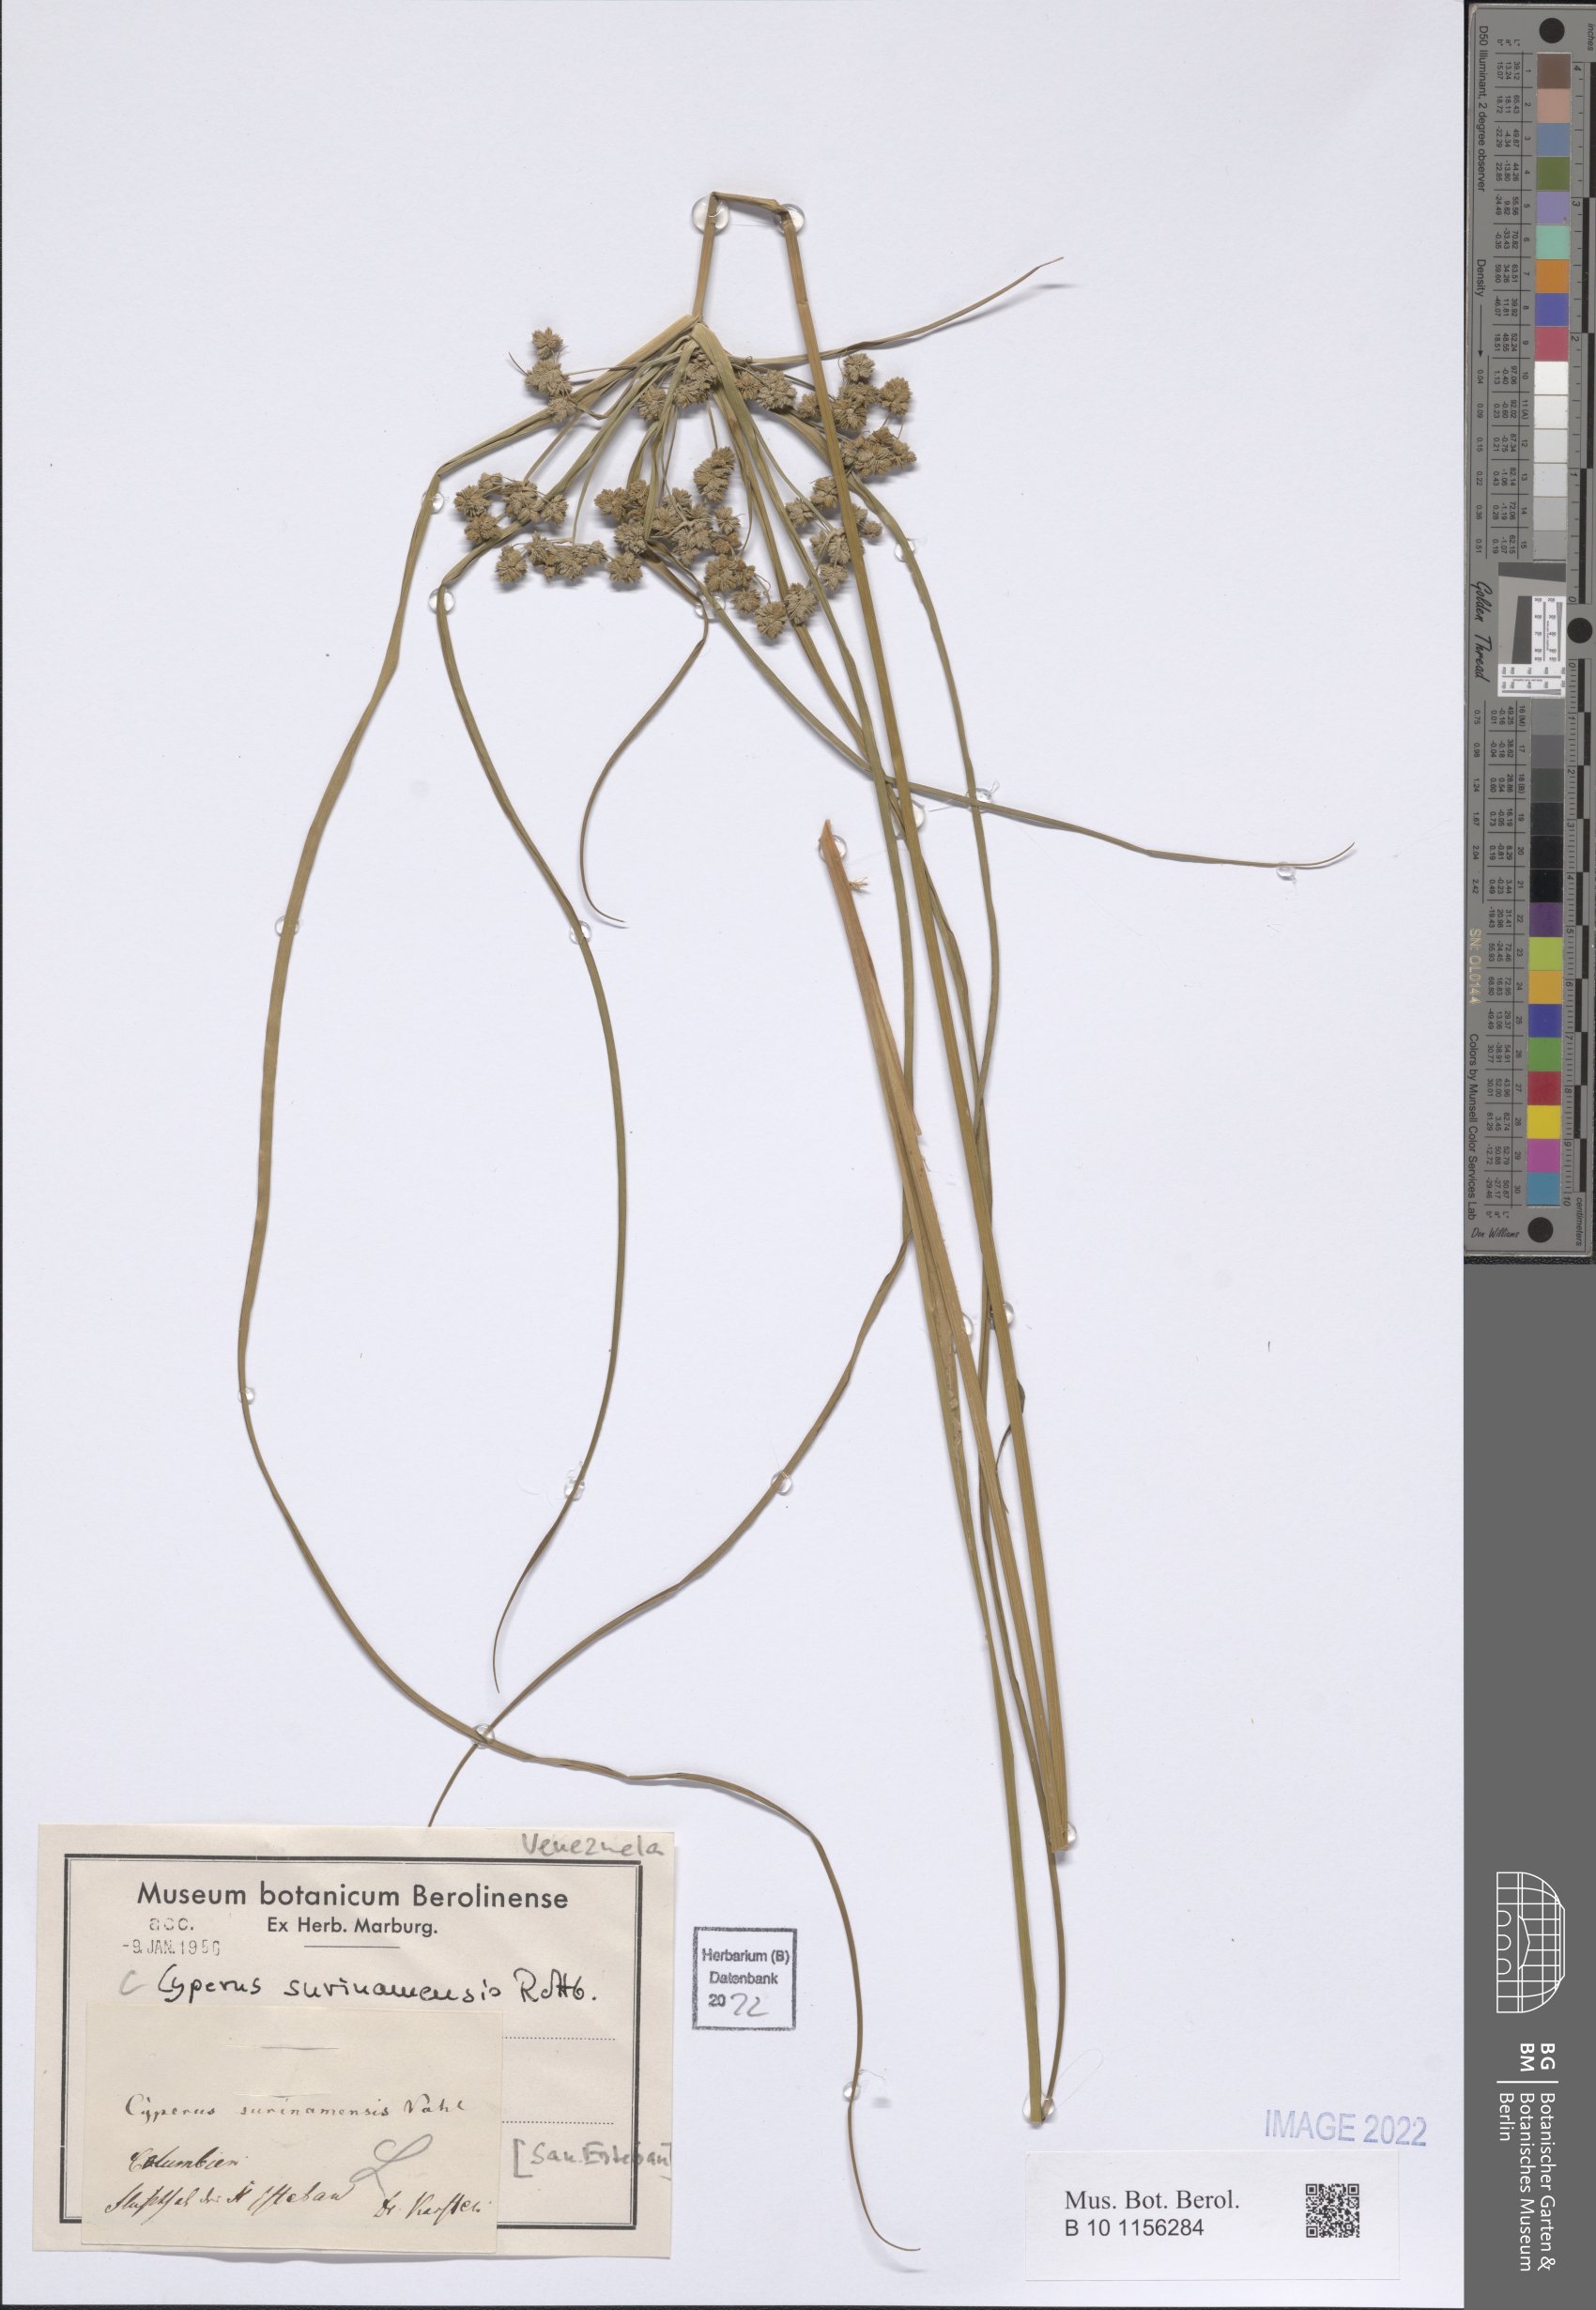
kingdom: Plantae
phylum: Tracheophyta
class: Liliopsida
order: Poales
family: Cyperaceae
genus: Cyperus
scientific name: Cyperus surinamensis
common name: Tropical flat sedge
